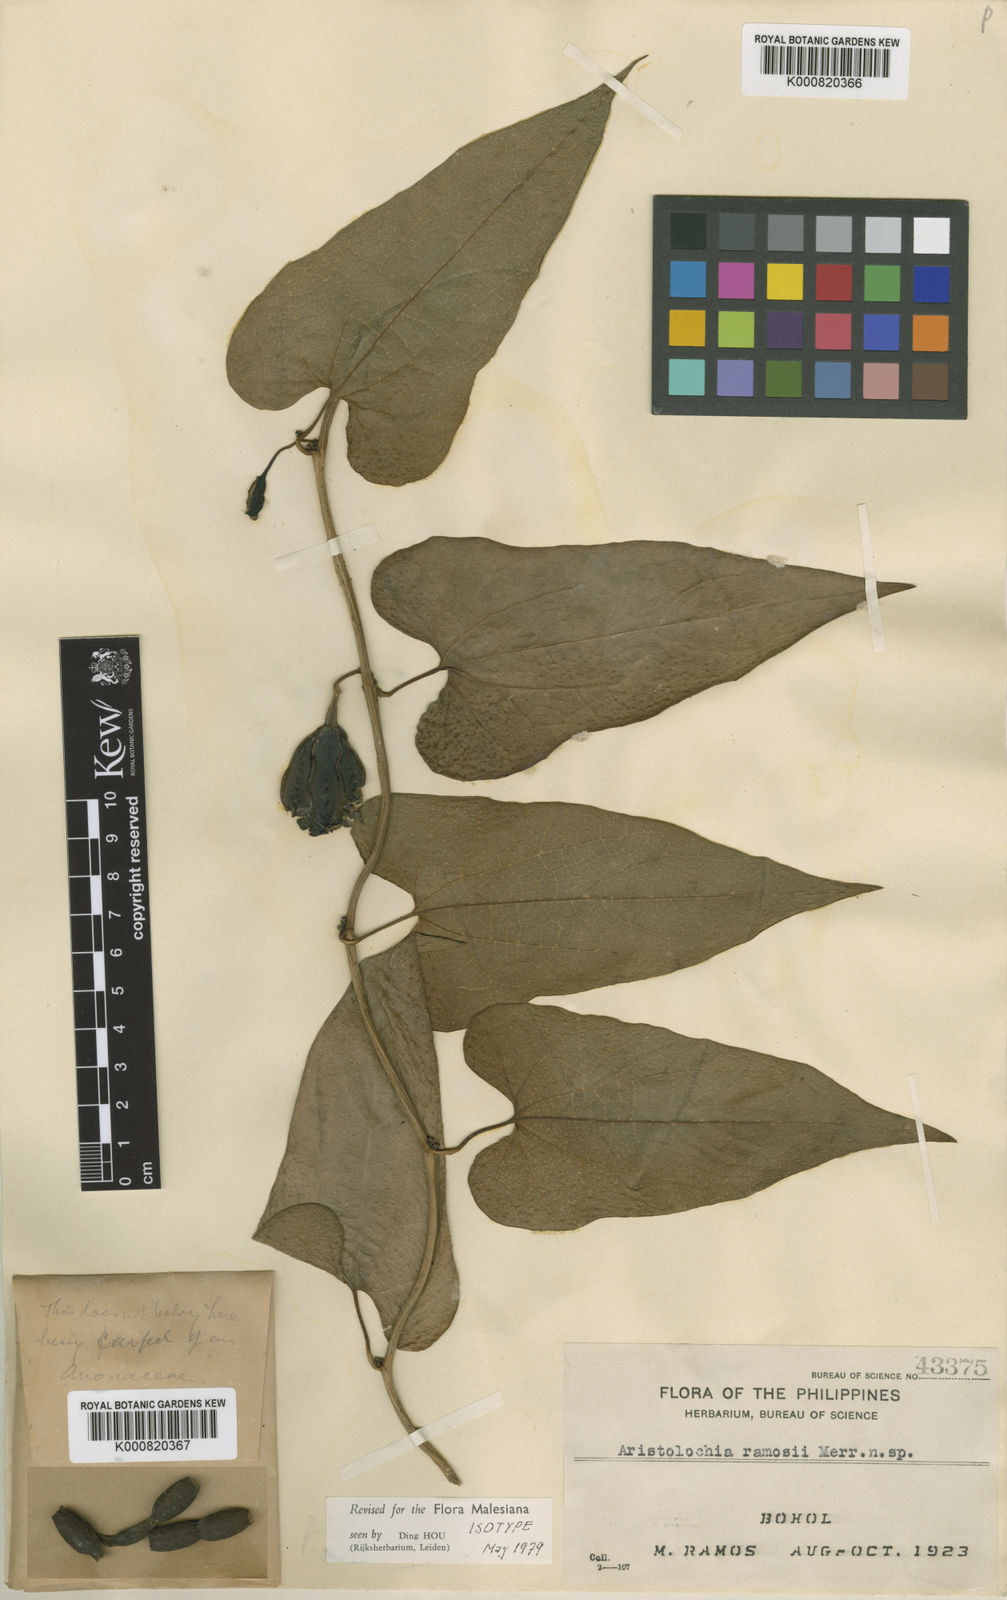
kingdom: Plantae
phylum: Tracheophyta
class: Magnoliopsida
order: Piperales
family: Aristolochiaceae
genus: Aristolochia
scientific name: Aristolochia zollingeriana
